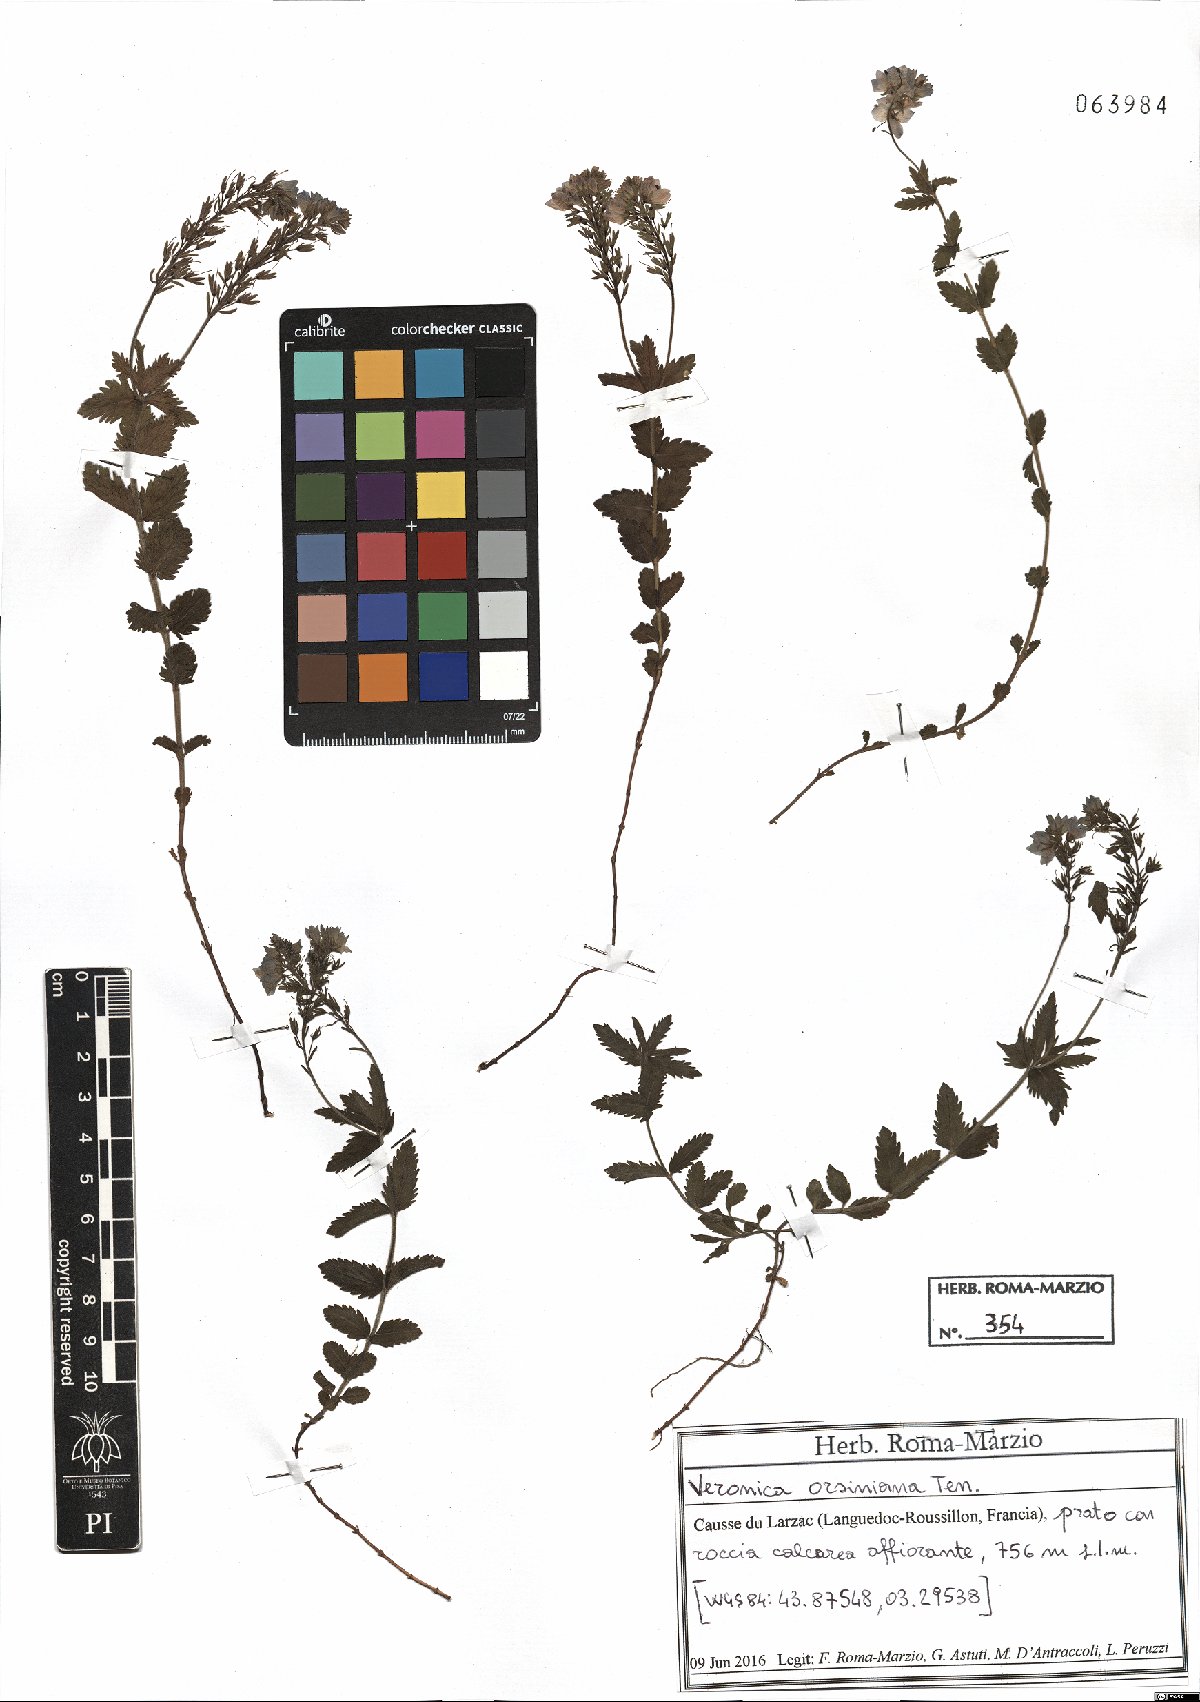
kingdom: Plantae
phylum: Tracheophyta
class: Magnoliopsida
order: Lamiales
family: Plantaginaceae
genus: Veronica
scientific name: Veronica orsiniana
